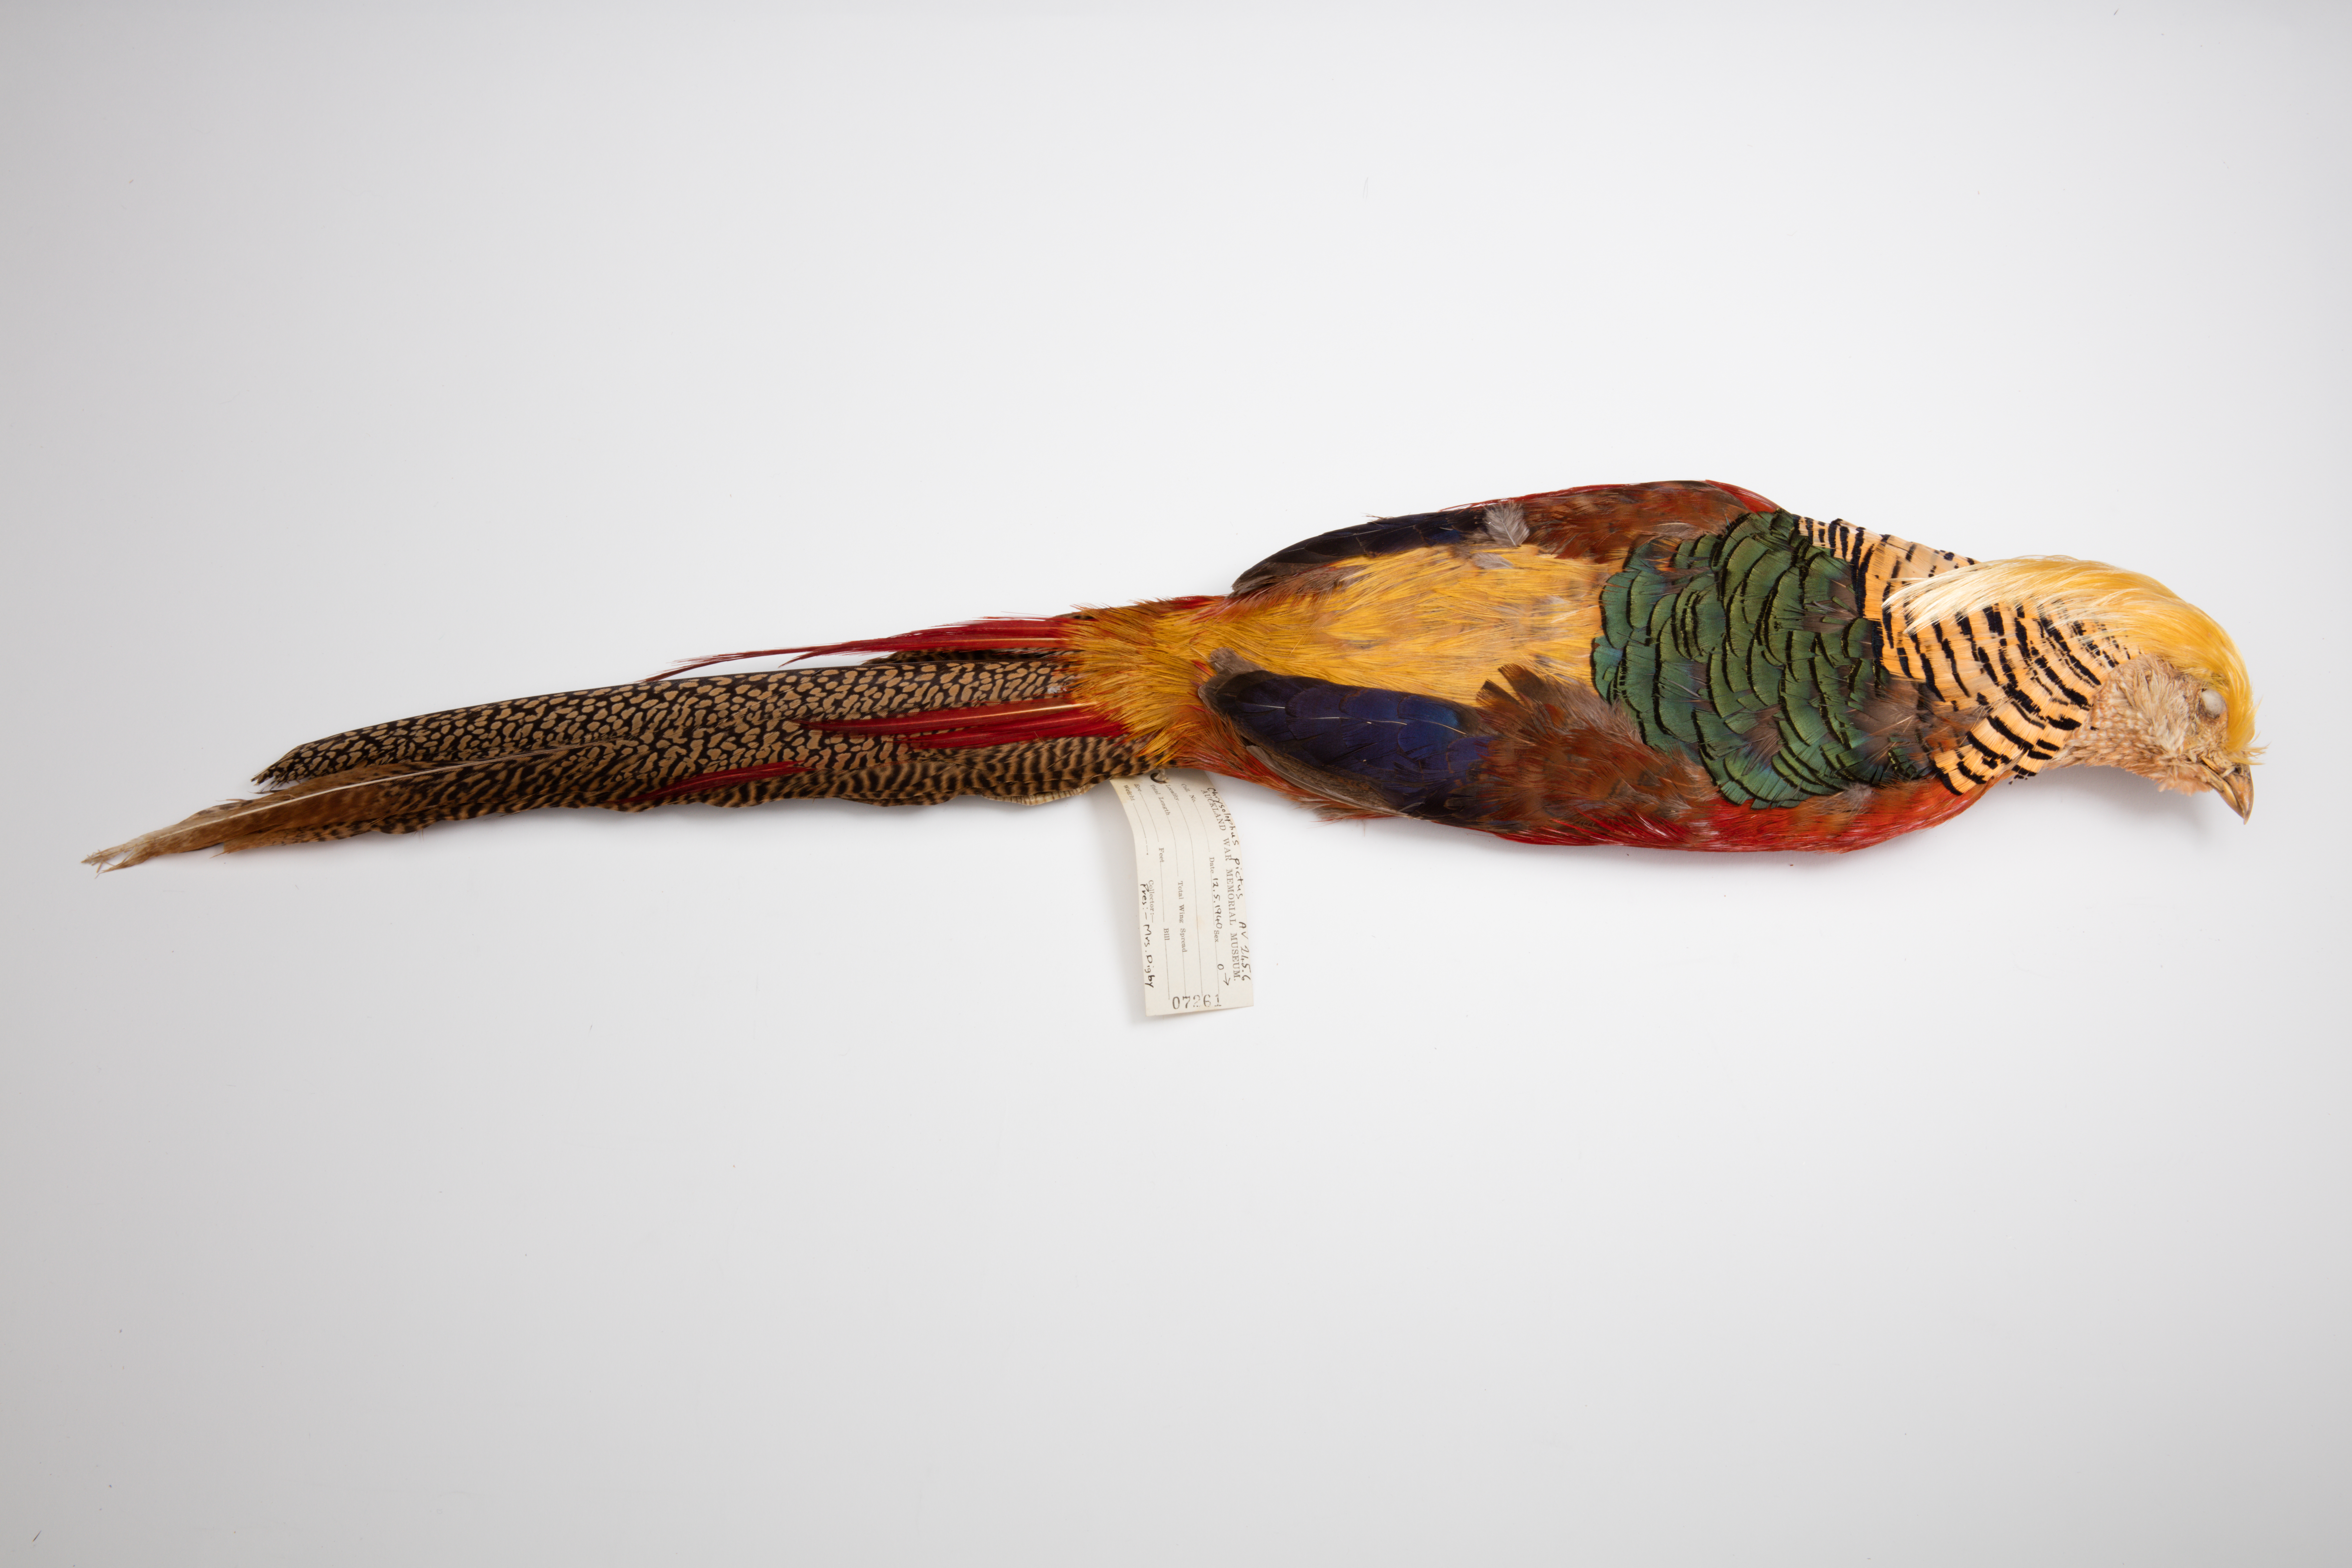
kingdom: Animalia
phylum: Chordata
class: Aves
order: Galliformes
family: Phasianidae
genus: Chrysolophus
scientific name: Chrysolophus pictus
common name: Golden pheasant
